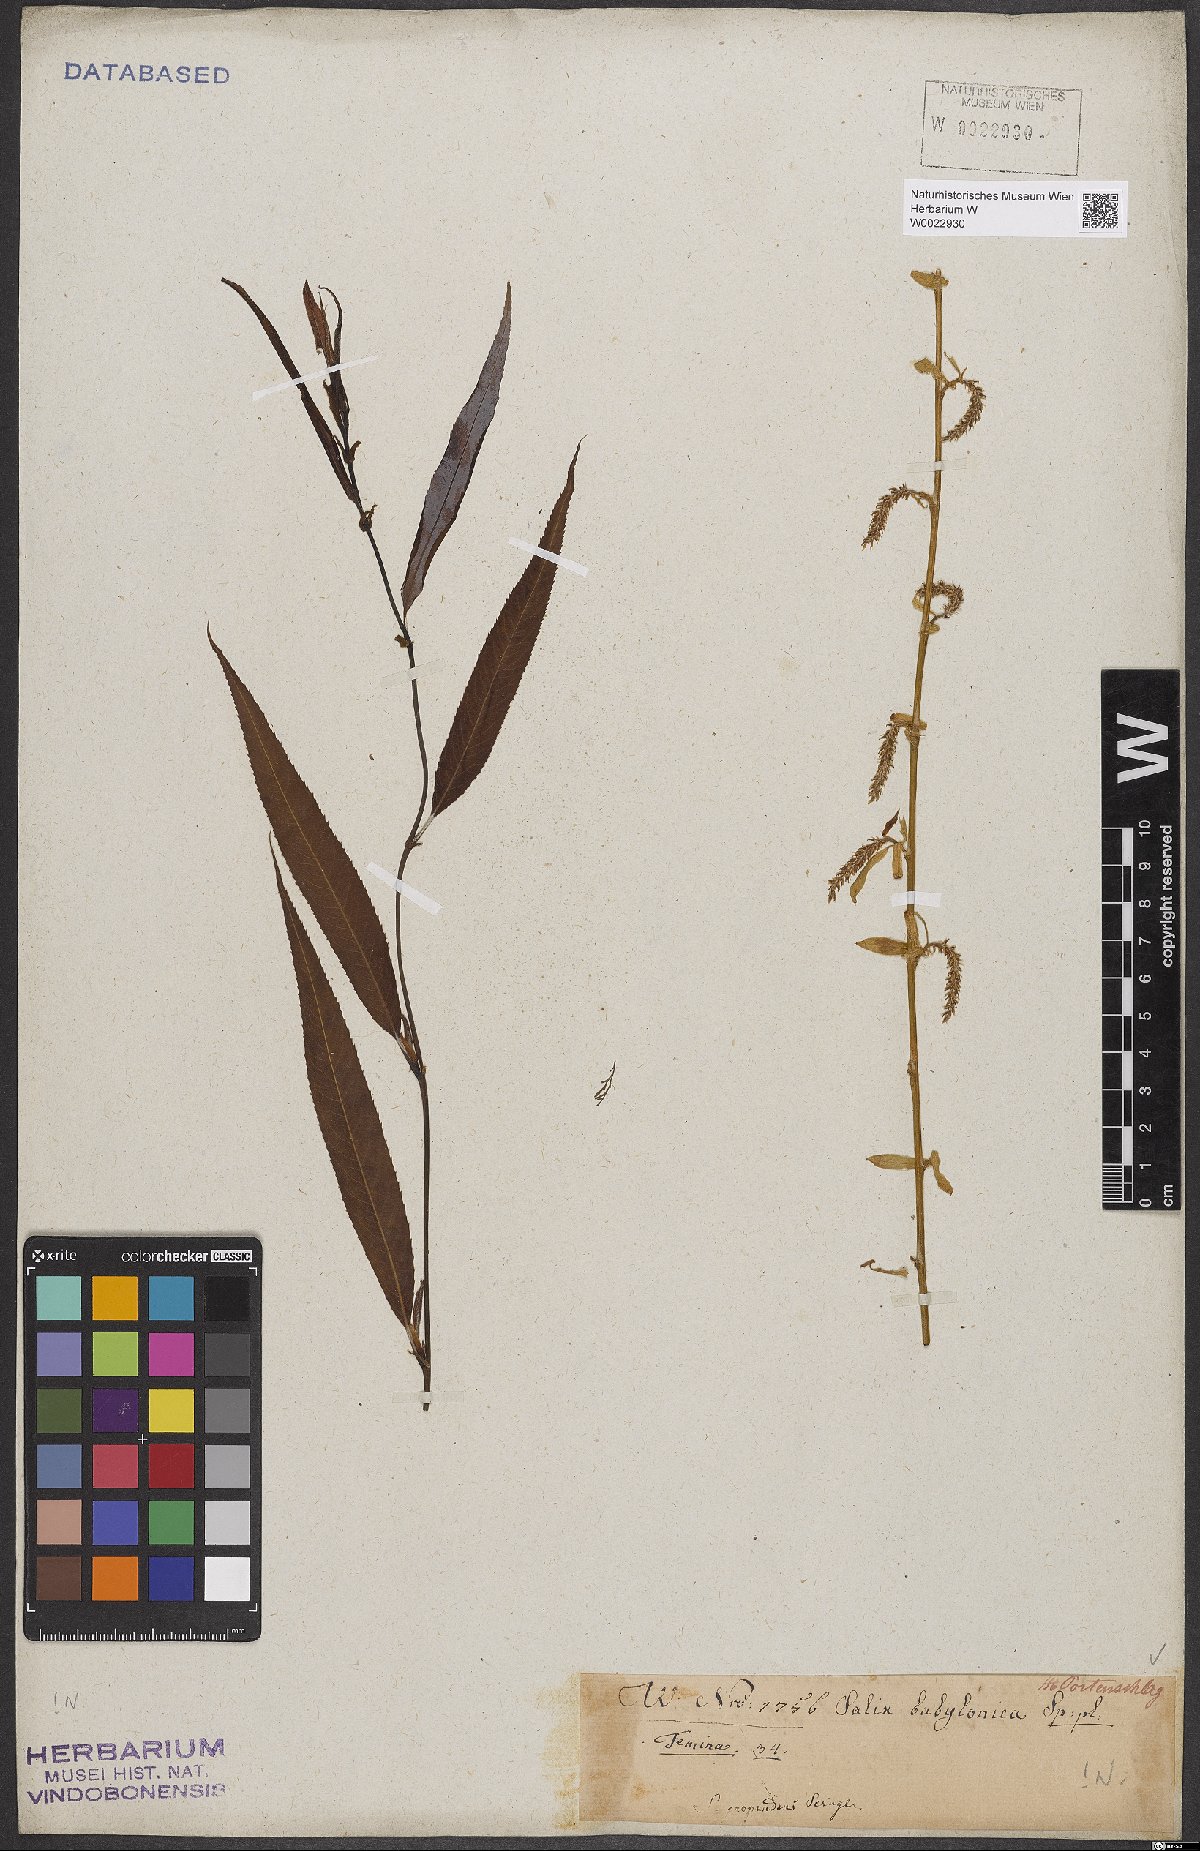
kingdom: Plantae
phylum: Tracheophyta
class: Magnoliopsida
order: Malpighiales
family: Salicaceae
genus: Salix
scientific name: Salix babylonica
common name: Weeping willow
